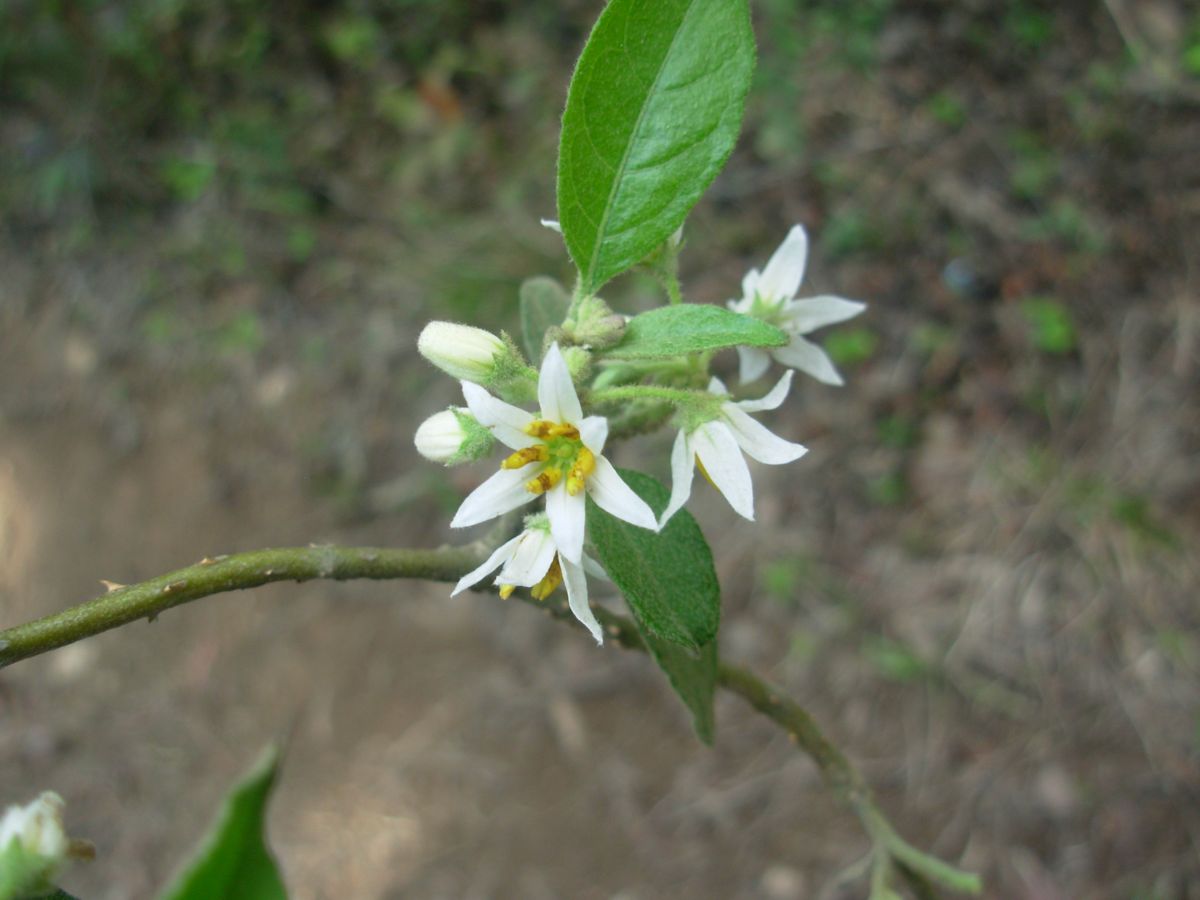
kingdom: Plantae
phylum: Tracheophyta
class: Magnoliopsida
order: Solanales
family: Solanaceae
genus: Solanum
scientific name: Solanum lanceifolium
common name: Lanceleaf nightshade
